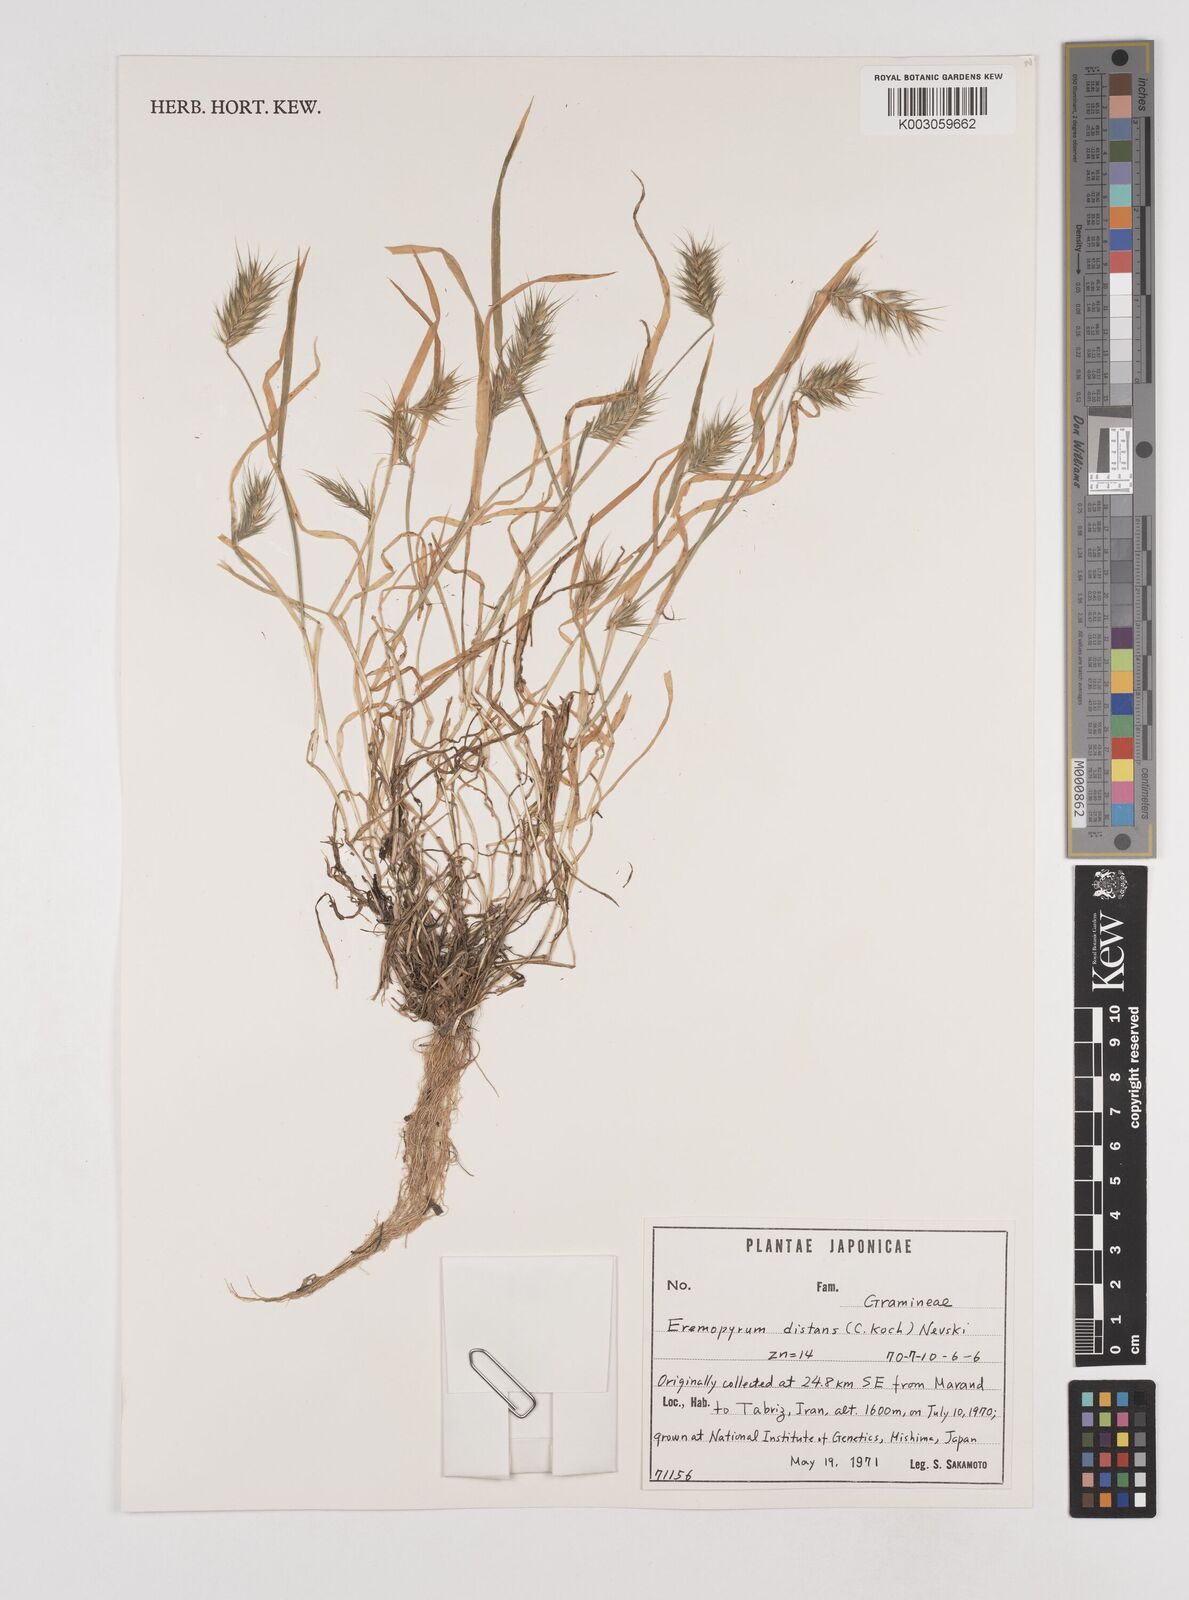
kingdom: Plantae
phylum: Tracheophyta
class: Liliopsida
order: Poales
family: Poaceae
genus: Eremopyrum
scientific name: Eremopyrum distans
